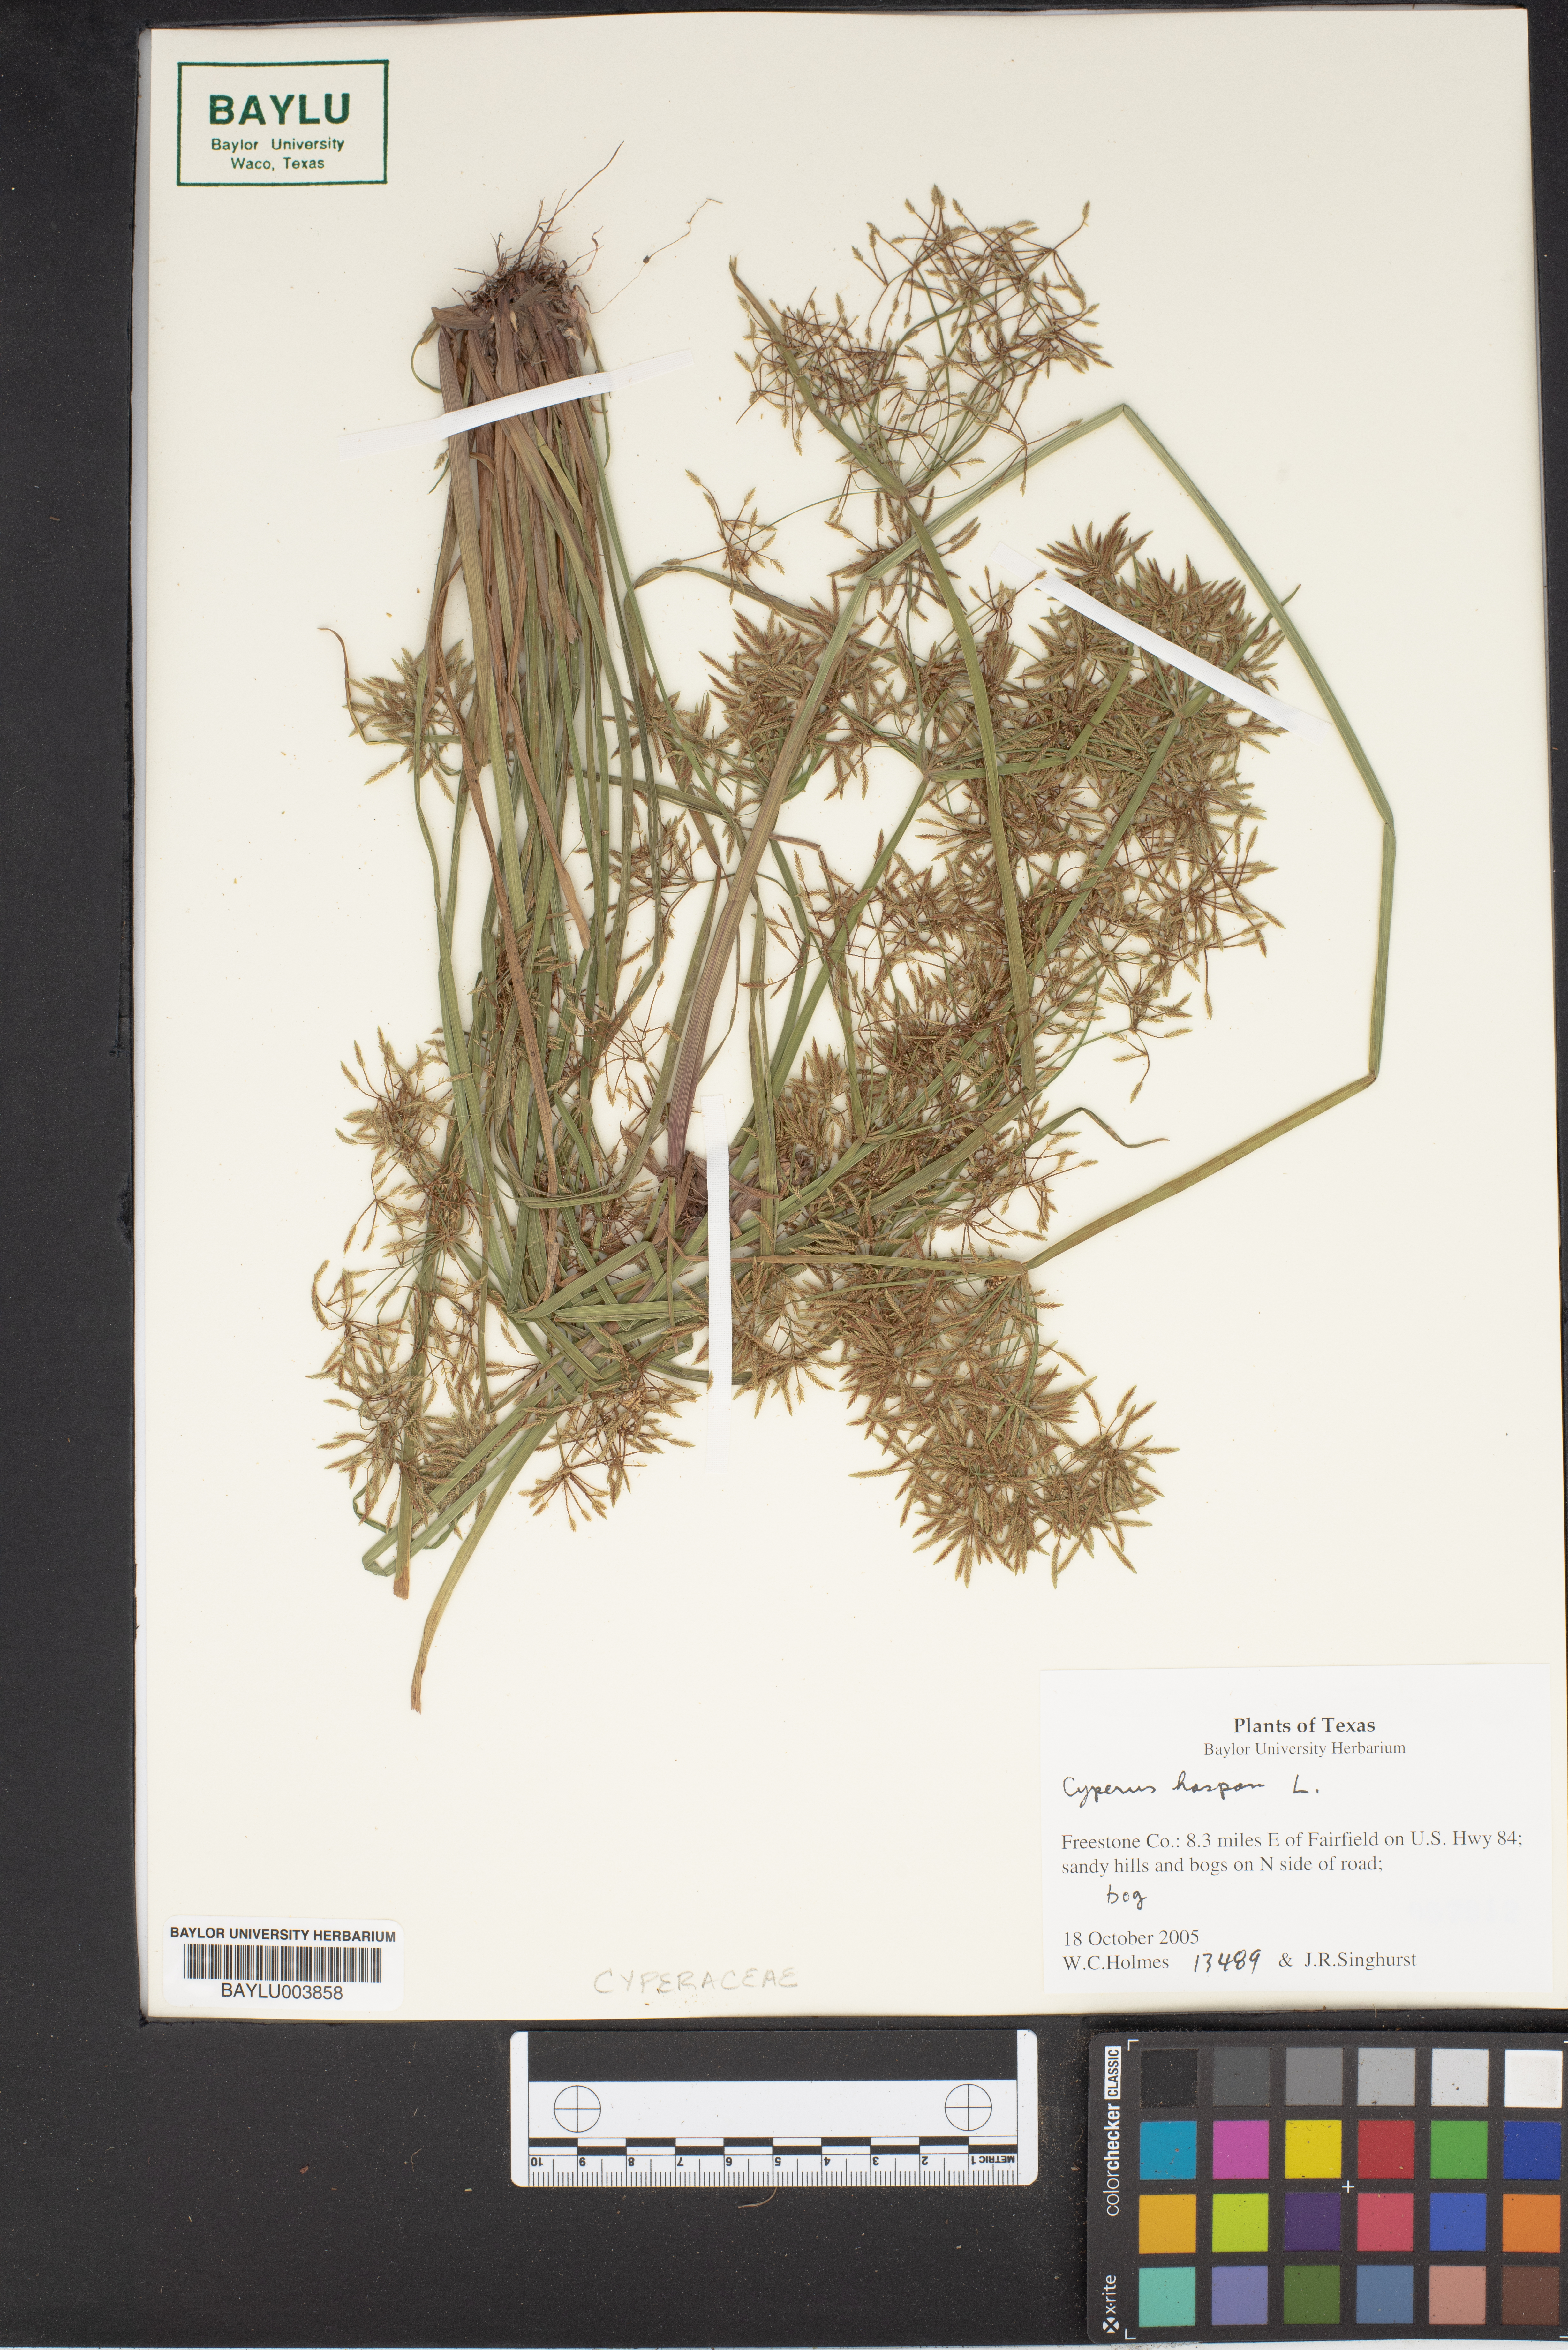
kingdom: Plantae
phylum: Tracheophyta
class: Liliopsida
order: Poales
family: Cyperaceae
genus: Cyperus
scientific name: Cyperus haspan
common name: Haspan flatsedge
